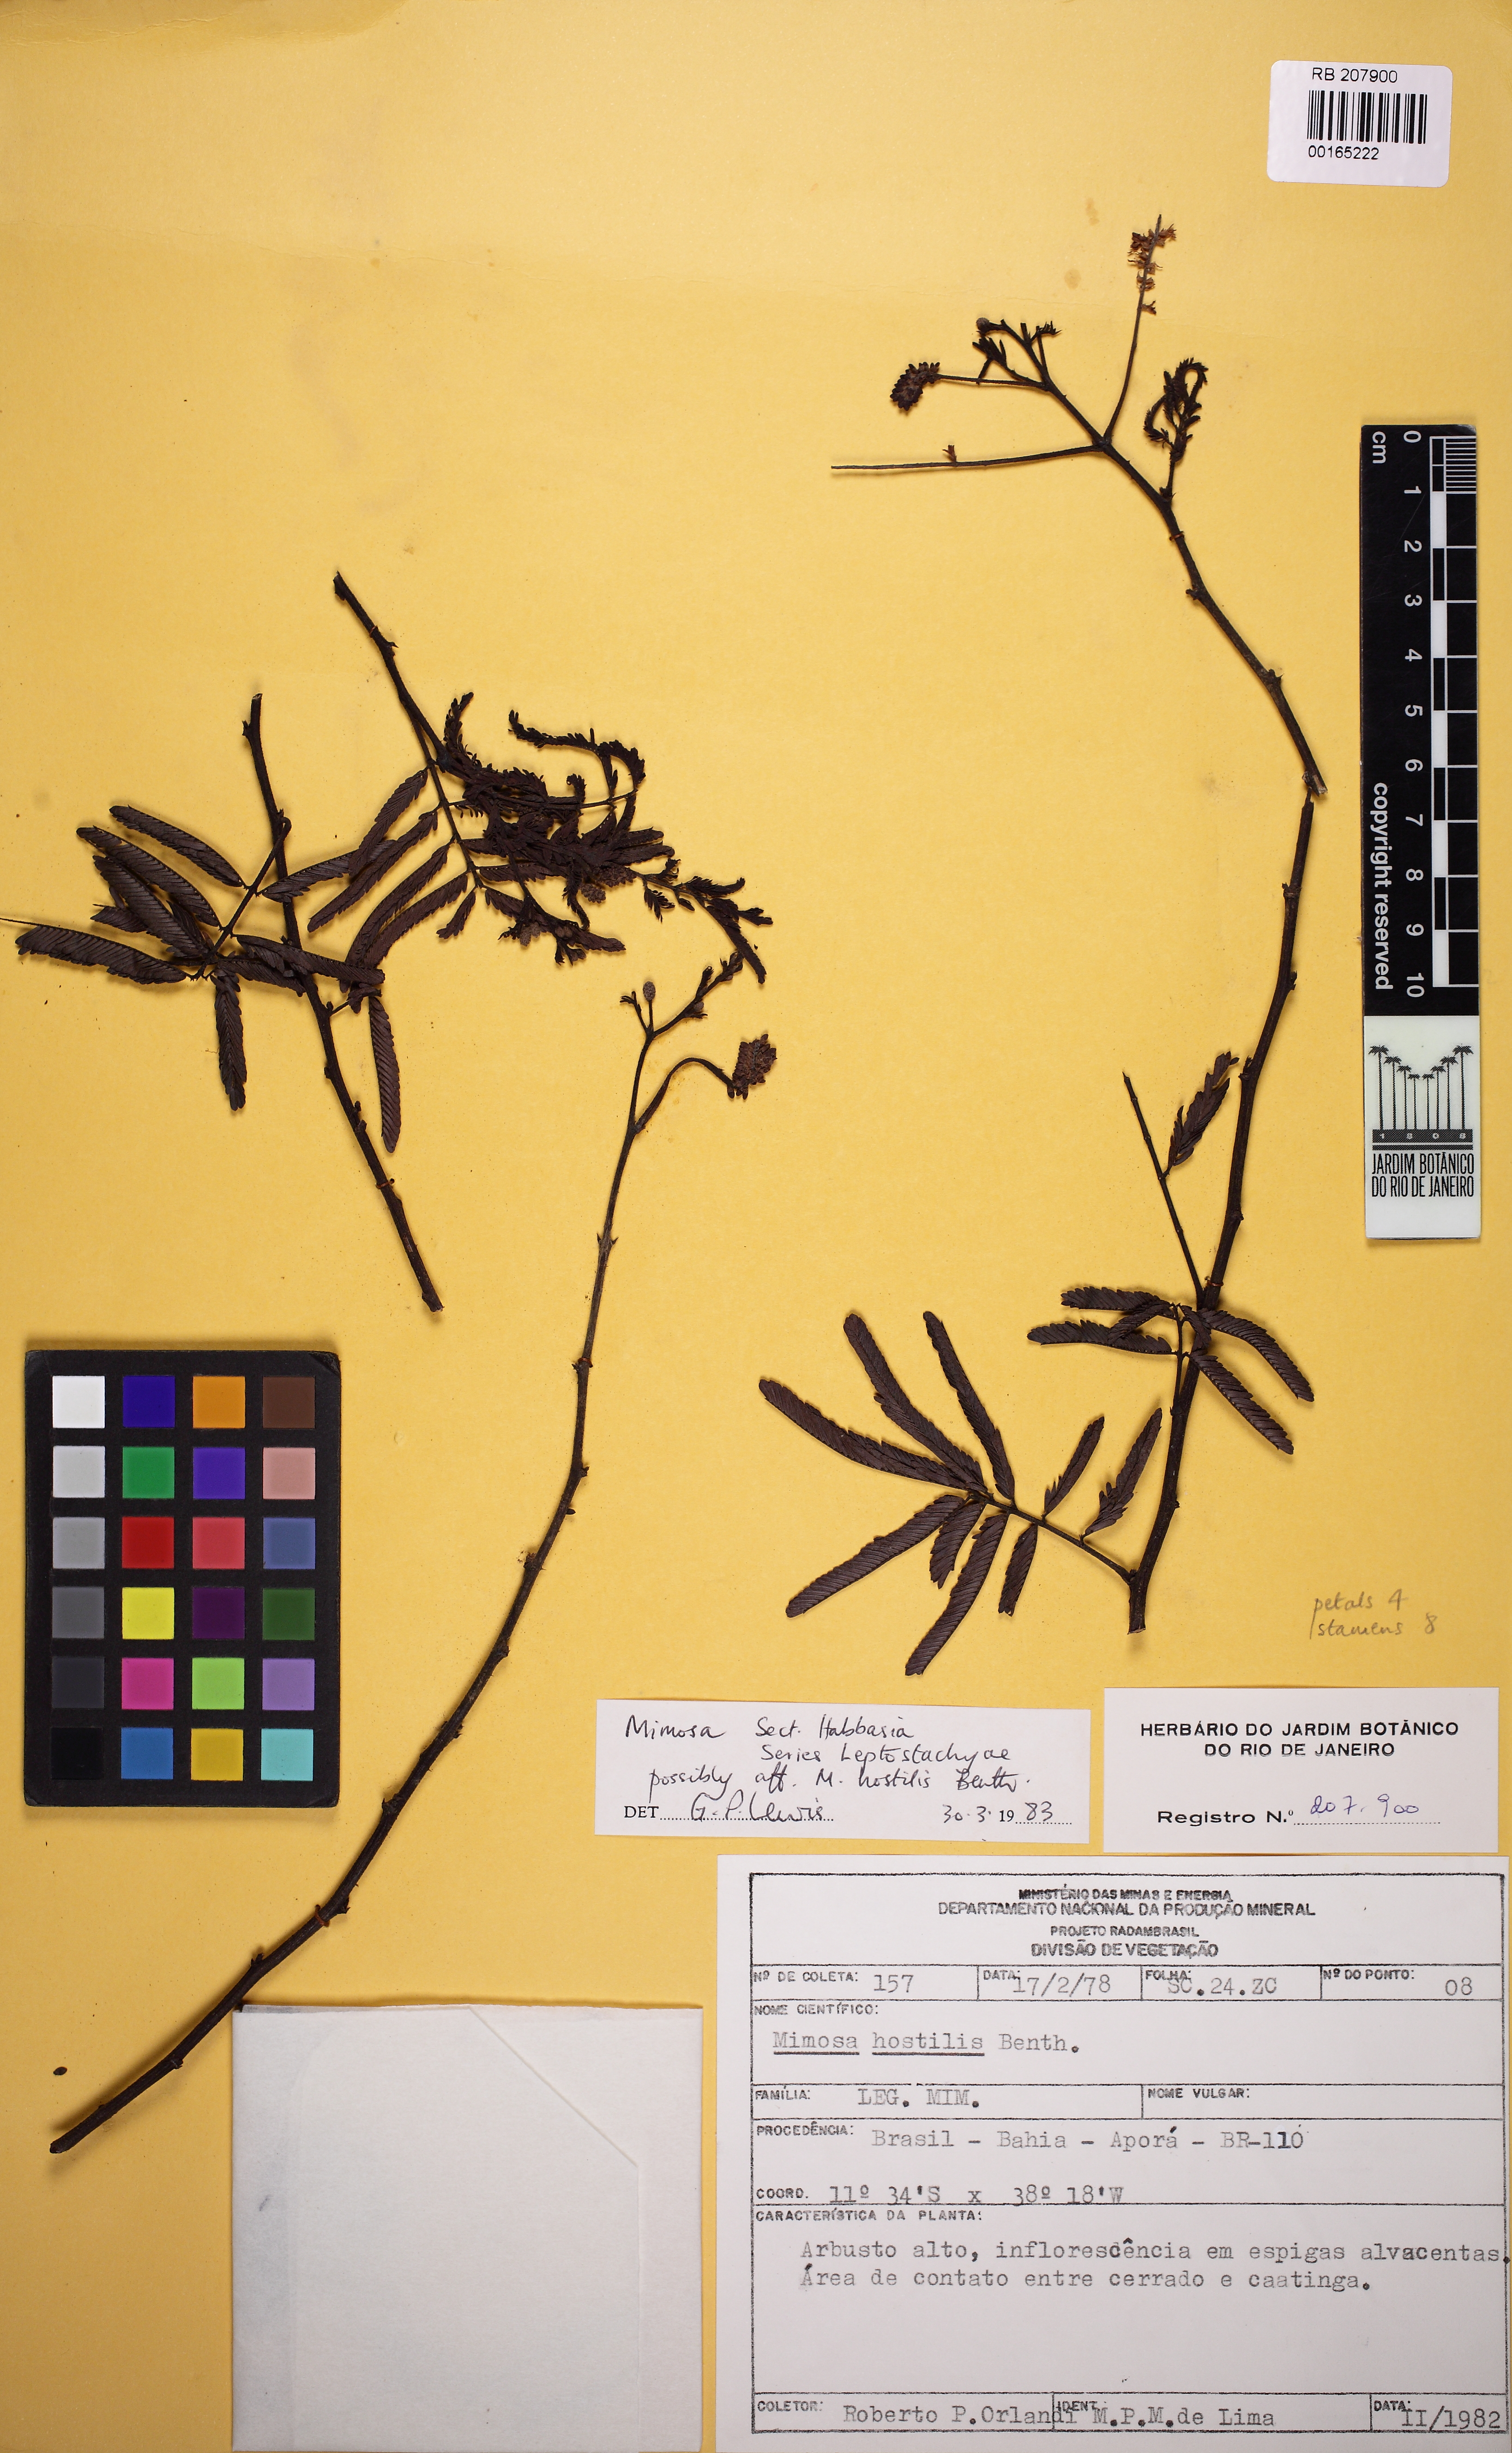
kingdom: Plantae
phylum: Tracheophyta
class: Magnoliopsida
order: Fabales
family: Fabaceae
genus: Mimosa
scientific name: Mimosa
